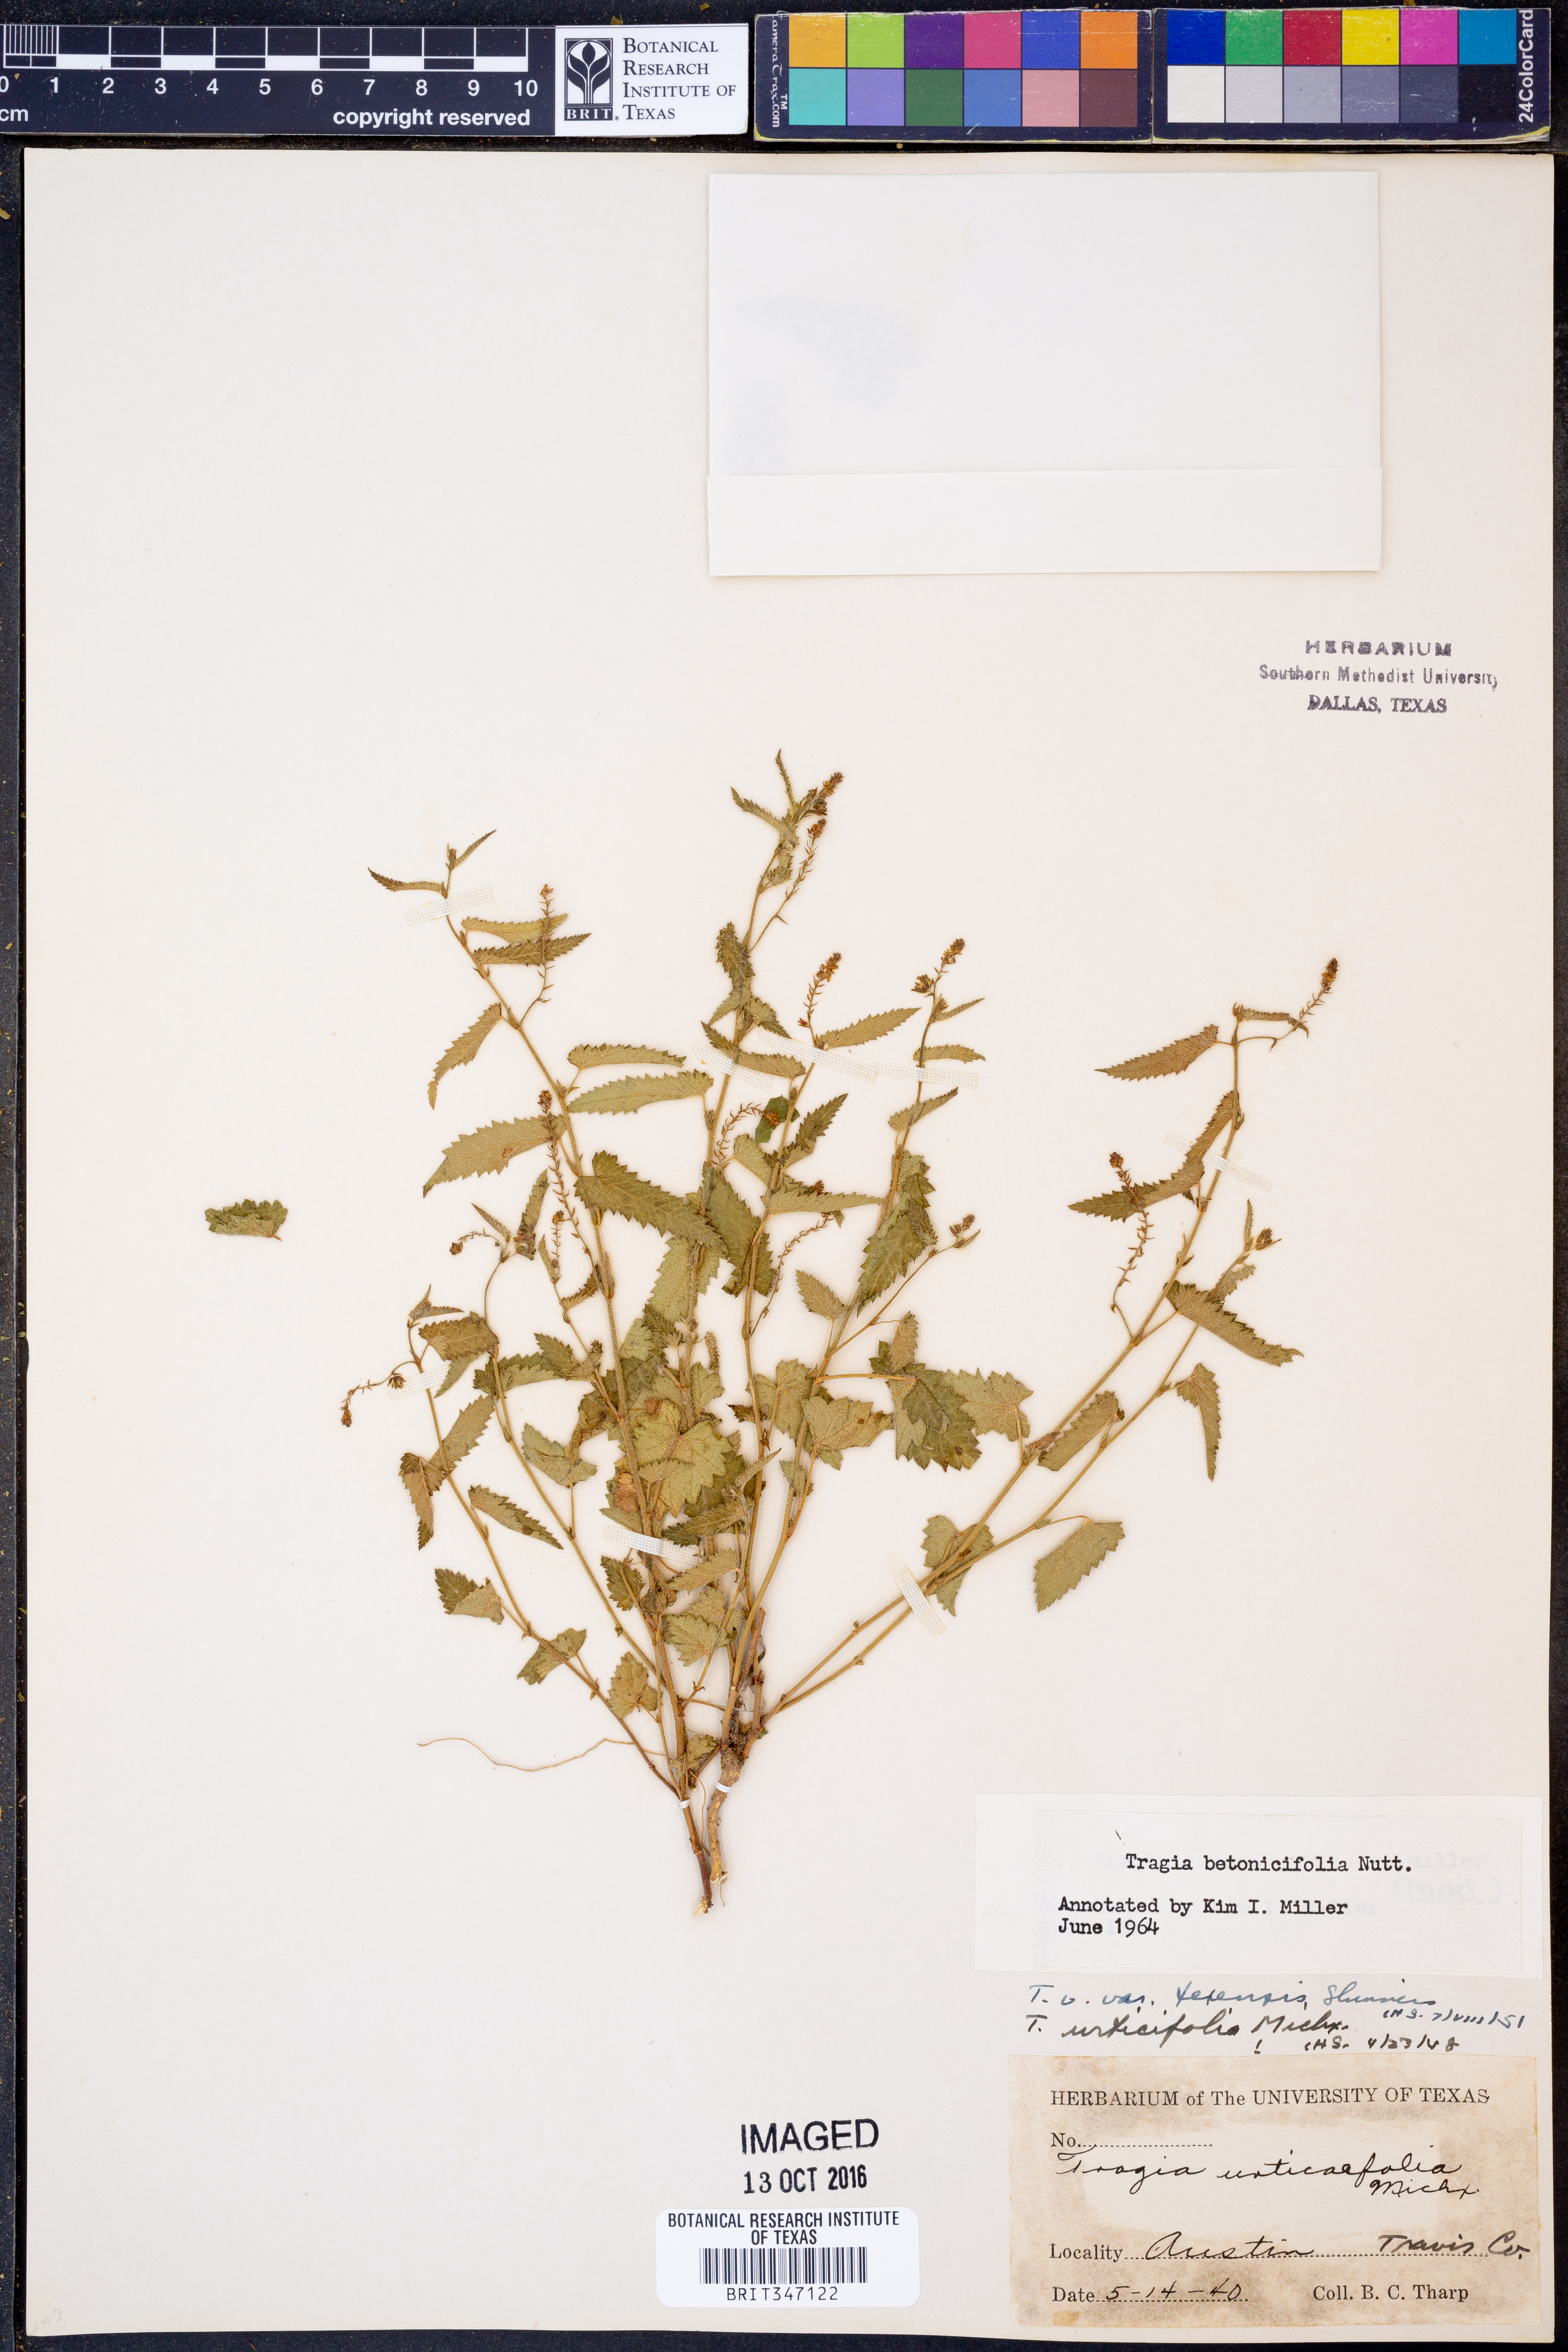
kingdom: Plantae
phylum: Tracheophyta
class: Magnoliopsida
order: Malpighiales
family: Euphorbiaceae
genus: Tragia
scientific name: Tragia betonicifolia
